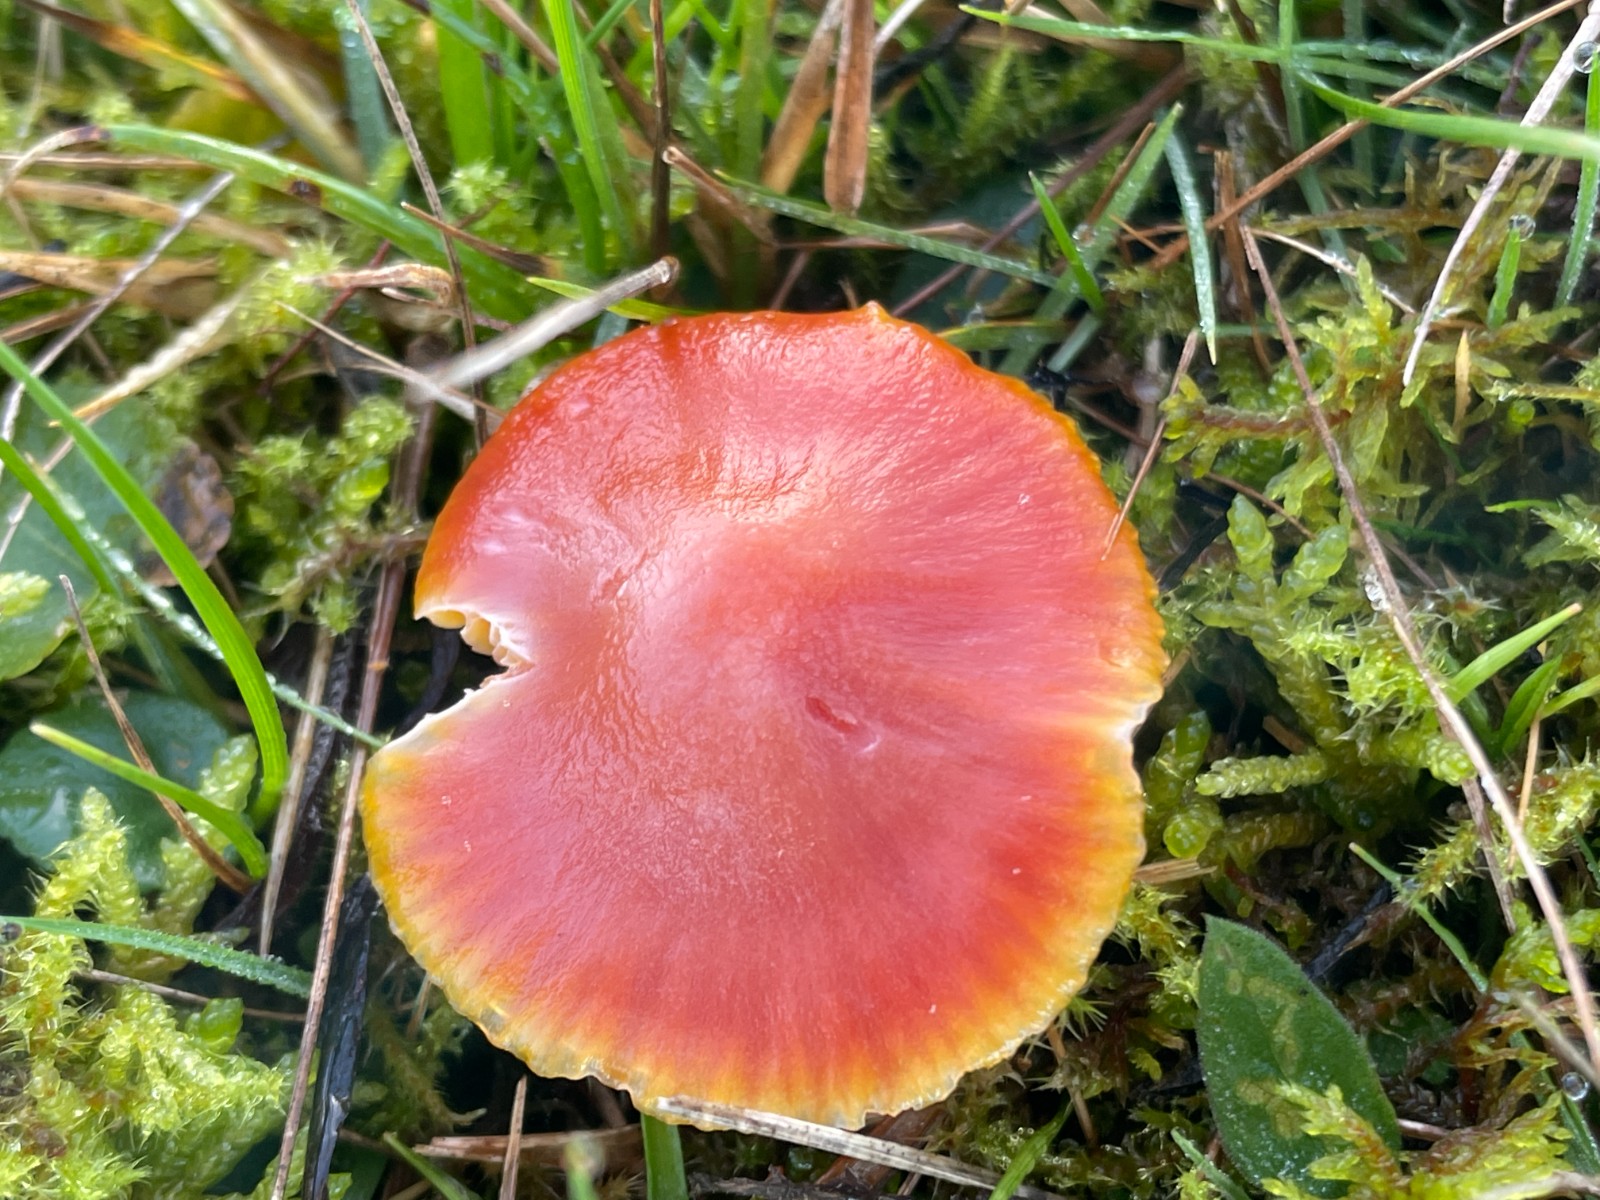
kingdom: Fungi
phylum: Basidiomycota
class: Agaricomycetes
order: Agaricales
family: Hygrophoraceae
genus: Hygrocybe
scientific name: Hygrocybe coccinea
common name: cinnober-vokshat
